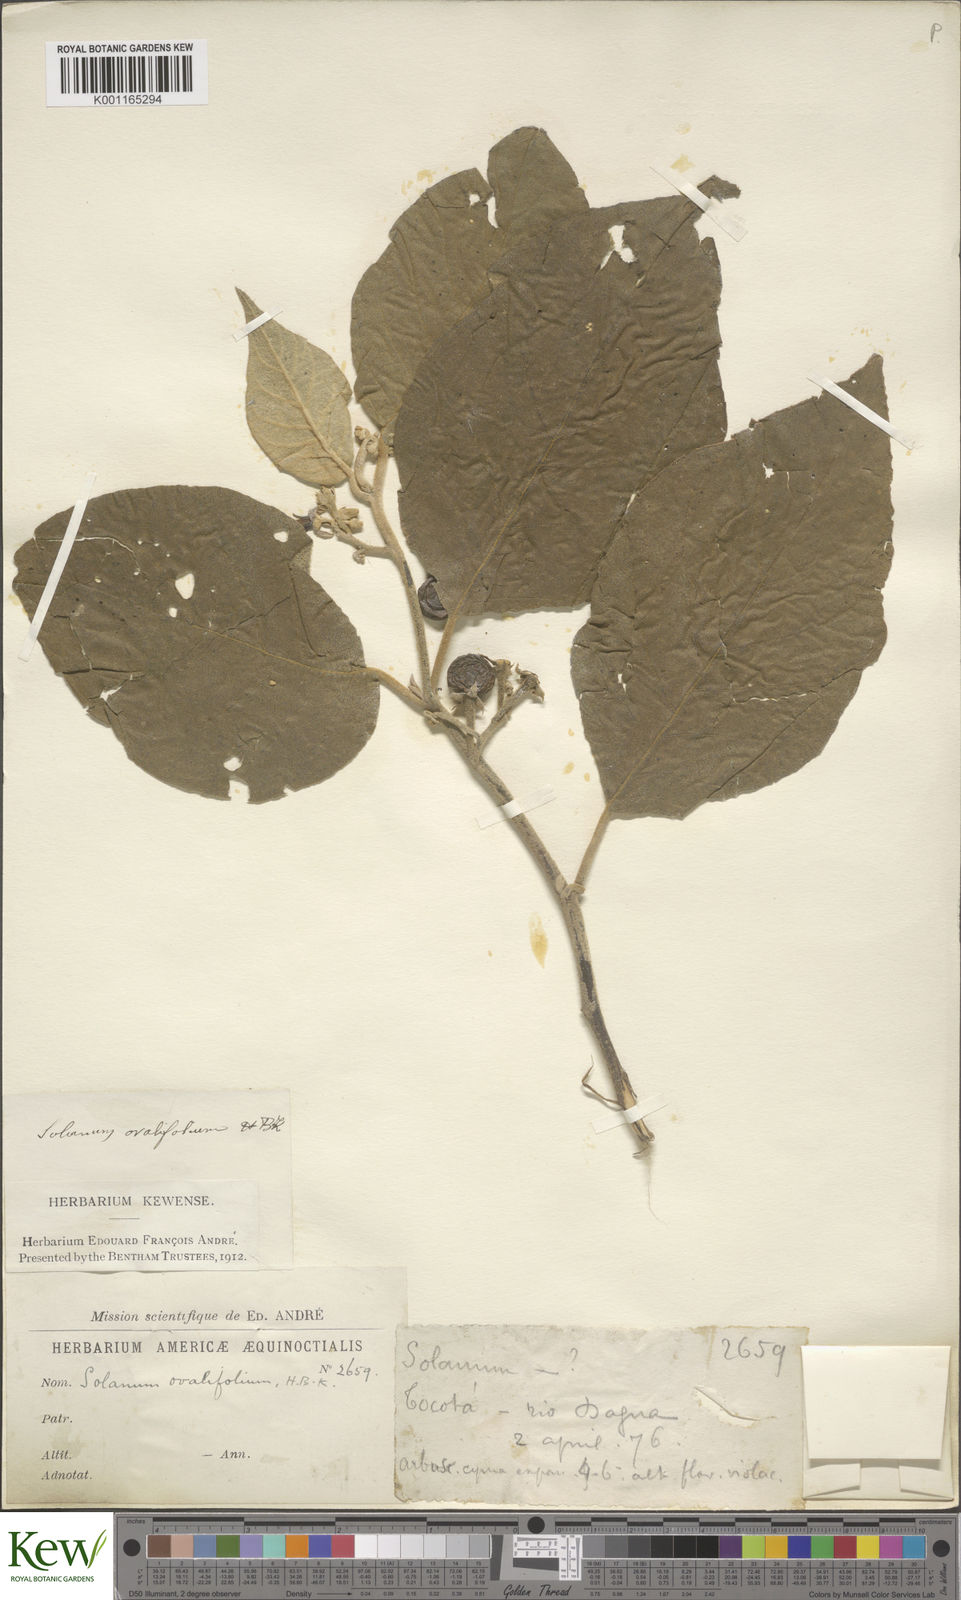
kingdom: Plantae
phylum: Tracheophyta
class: Magnoliopsida
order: Solanales
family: Solanaceae
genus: Solanum
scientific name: Solanum ovalifolium
